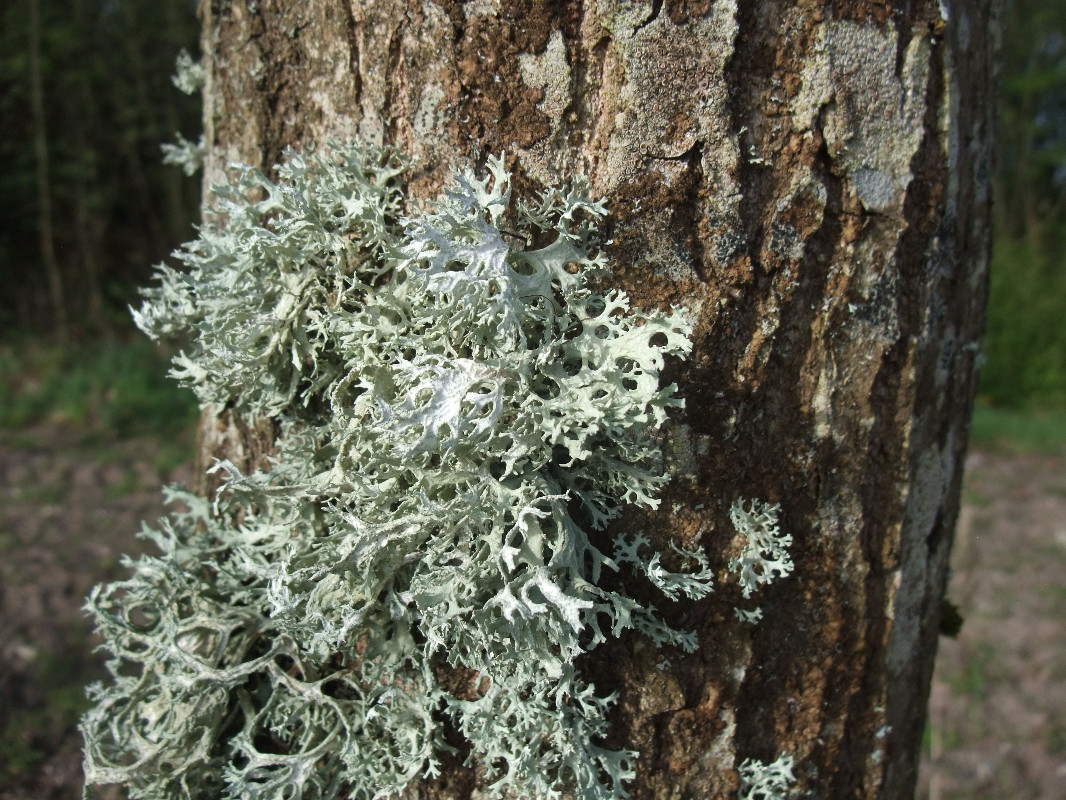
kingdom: Fungi
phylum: Ascomycota
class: Lecanoromycetes
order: Lecanorales
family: Parmeliaceae
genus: Evernia
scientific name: Evernia prunastri
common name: almindelig slåenlav
